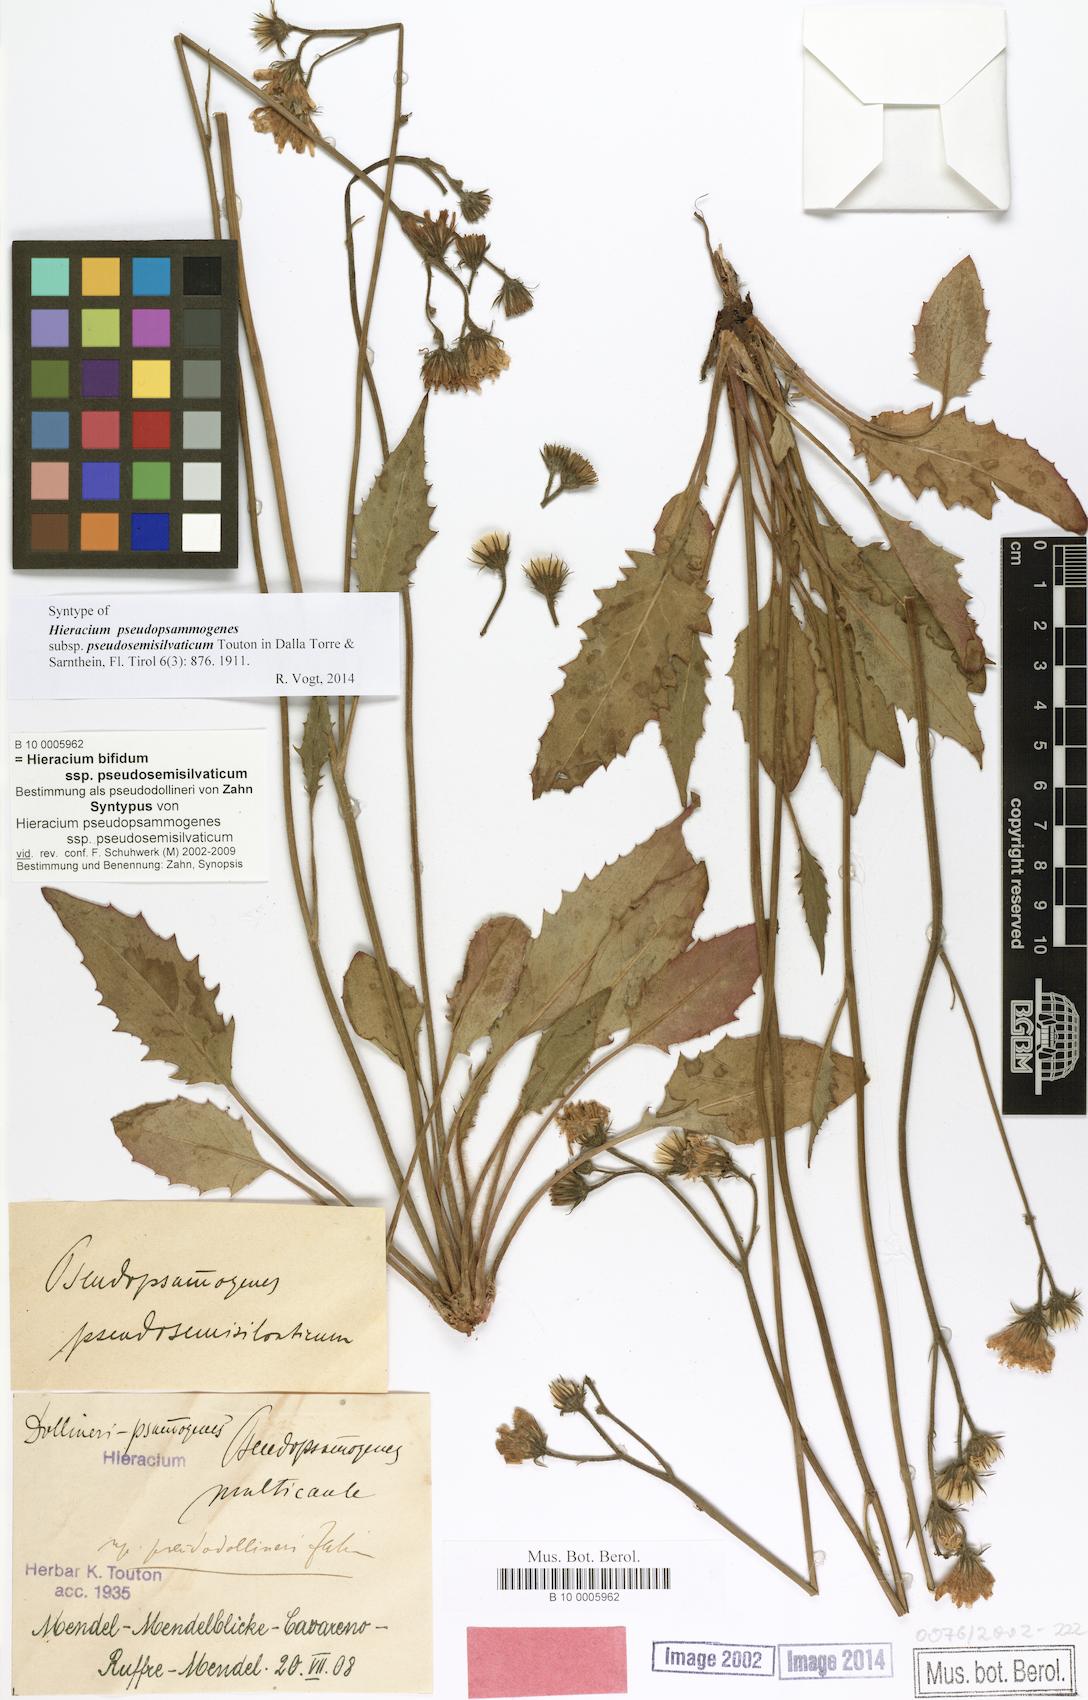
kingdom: Plantae
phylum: Tracheophyta
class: Magnoliopsida
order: Asterales
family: Asteraceae
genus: Hieracium
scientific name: Hieracium bifidum
